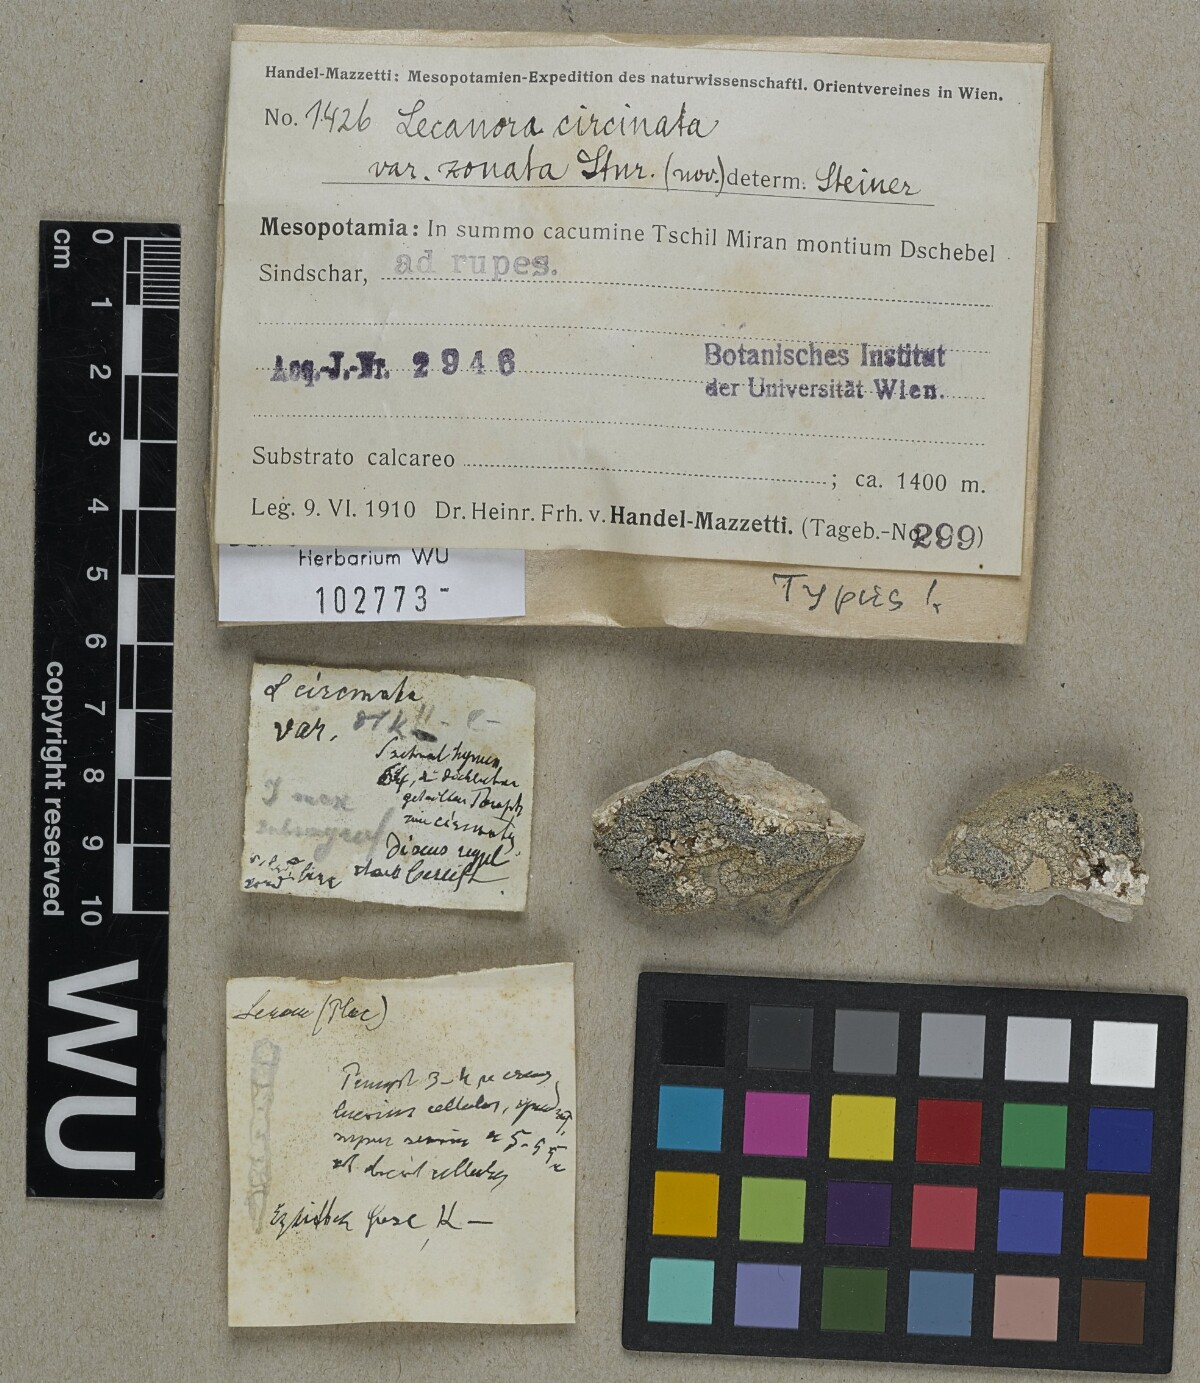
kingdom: Fungi
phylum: Ascomycota
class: Lecanoromycetes
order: Pertusariales
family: Megasporaceae
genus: Lobothallia
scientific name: Lobothallia radiosa
